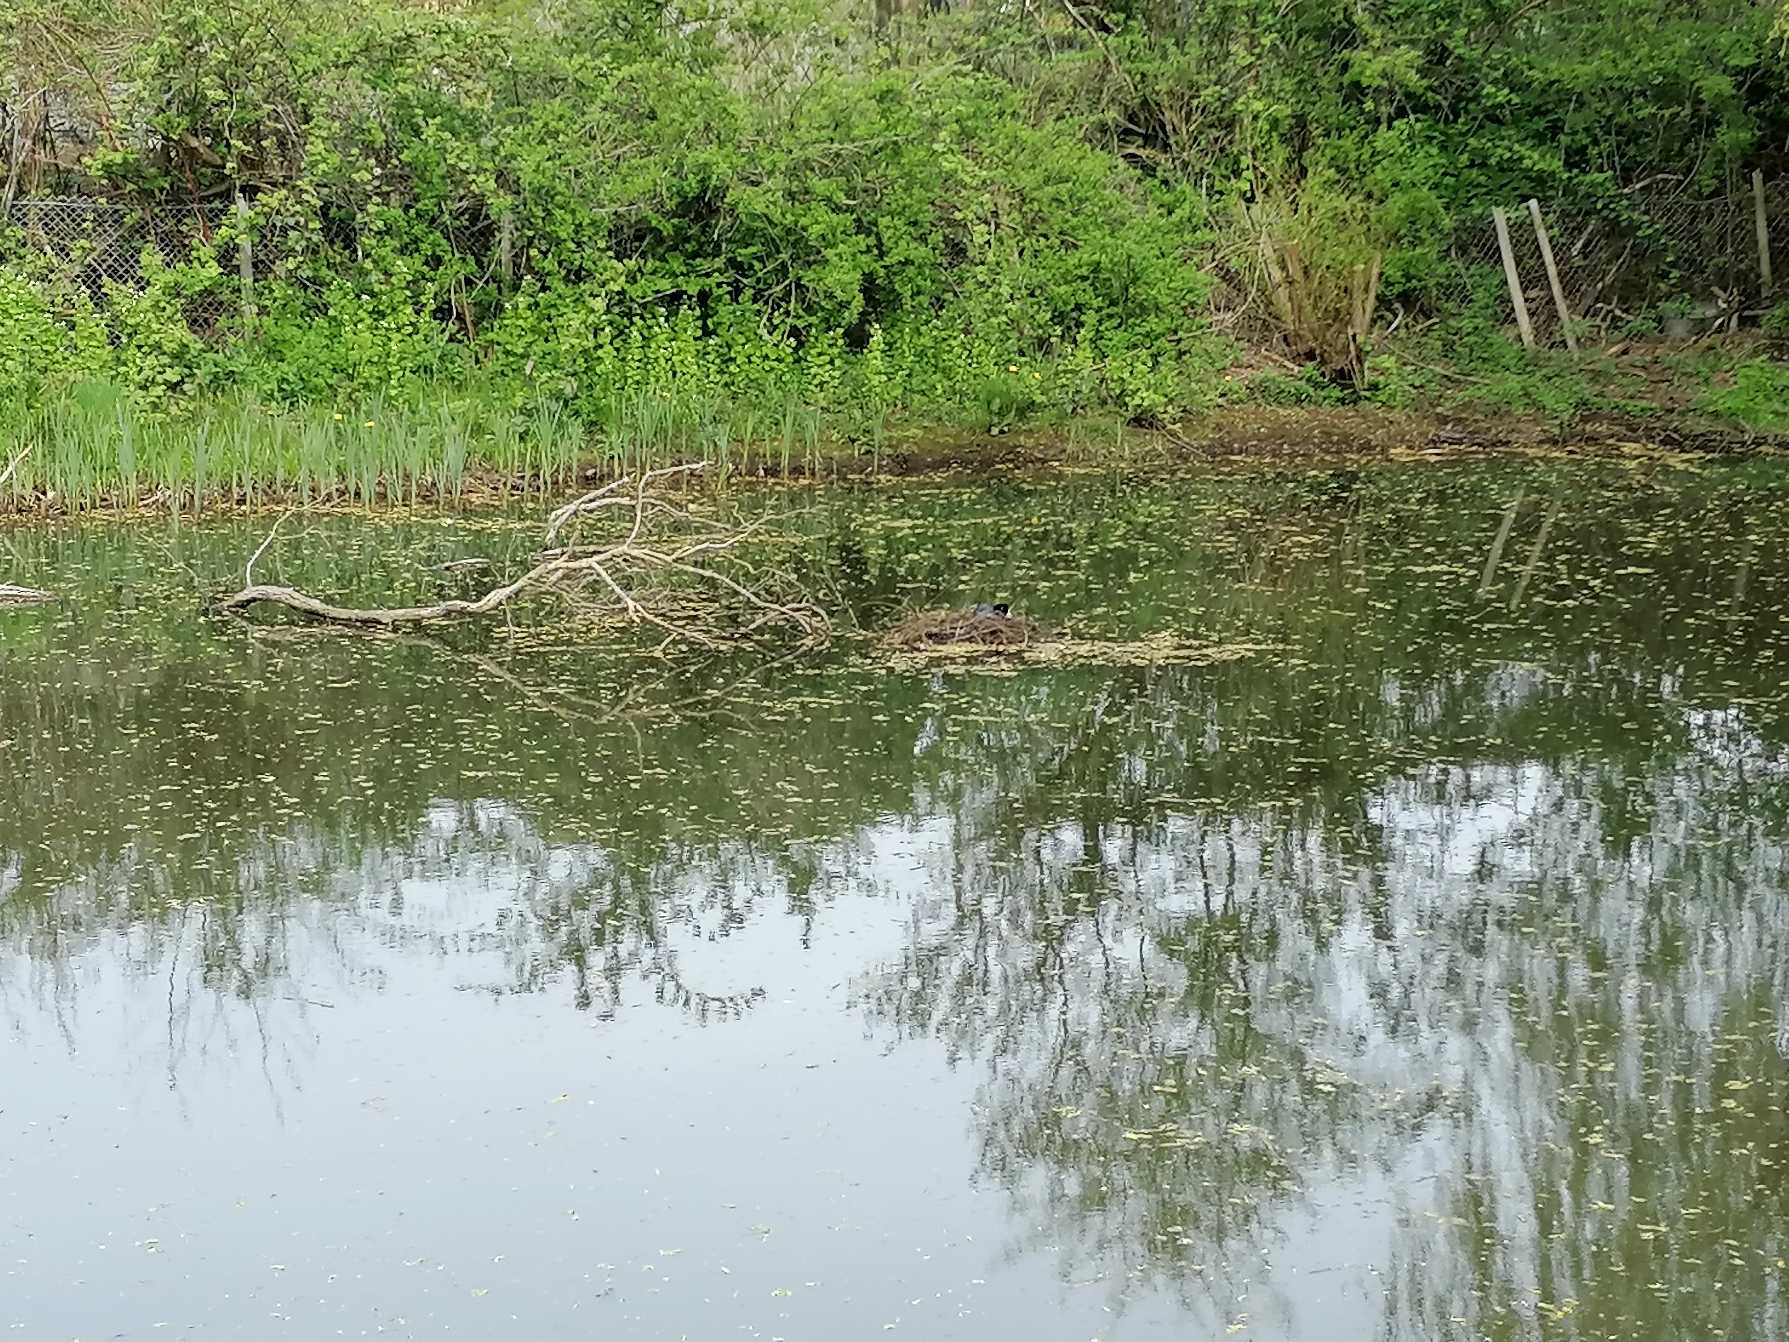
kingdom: Animalia
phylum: Chordata
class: Aves
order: Gruiformes
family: Rallidae
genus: Fulica
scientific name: Fulica atra
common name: Blishøne
